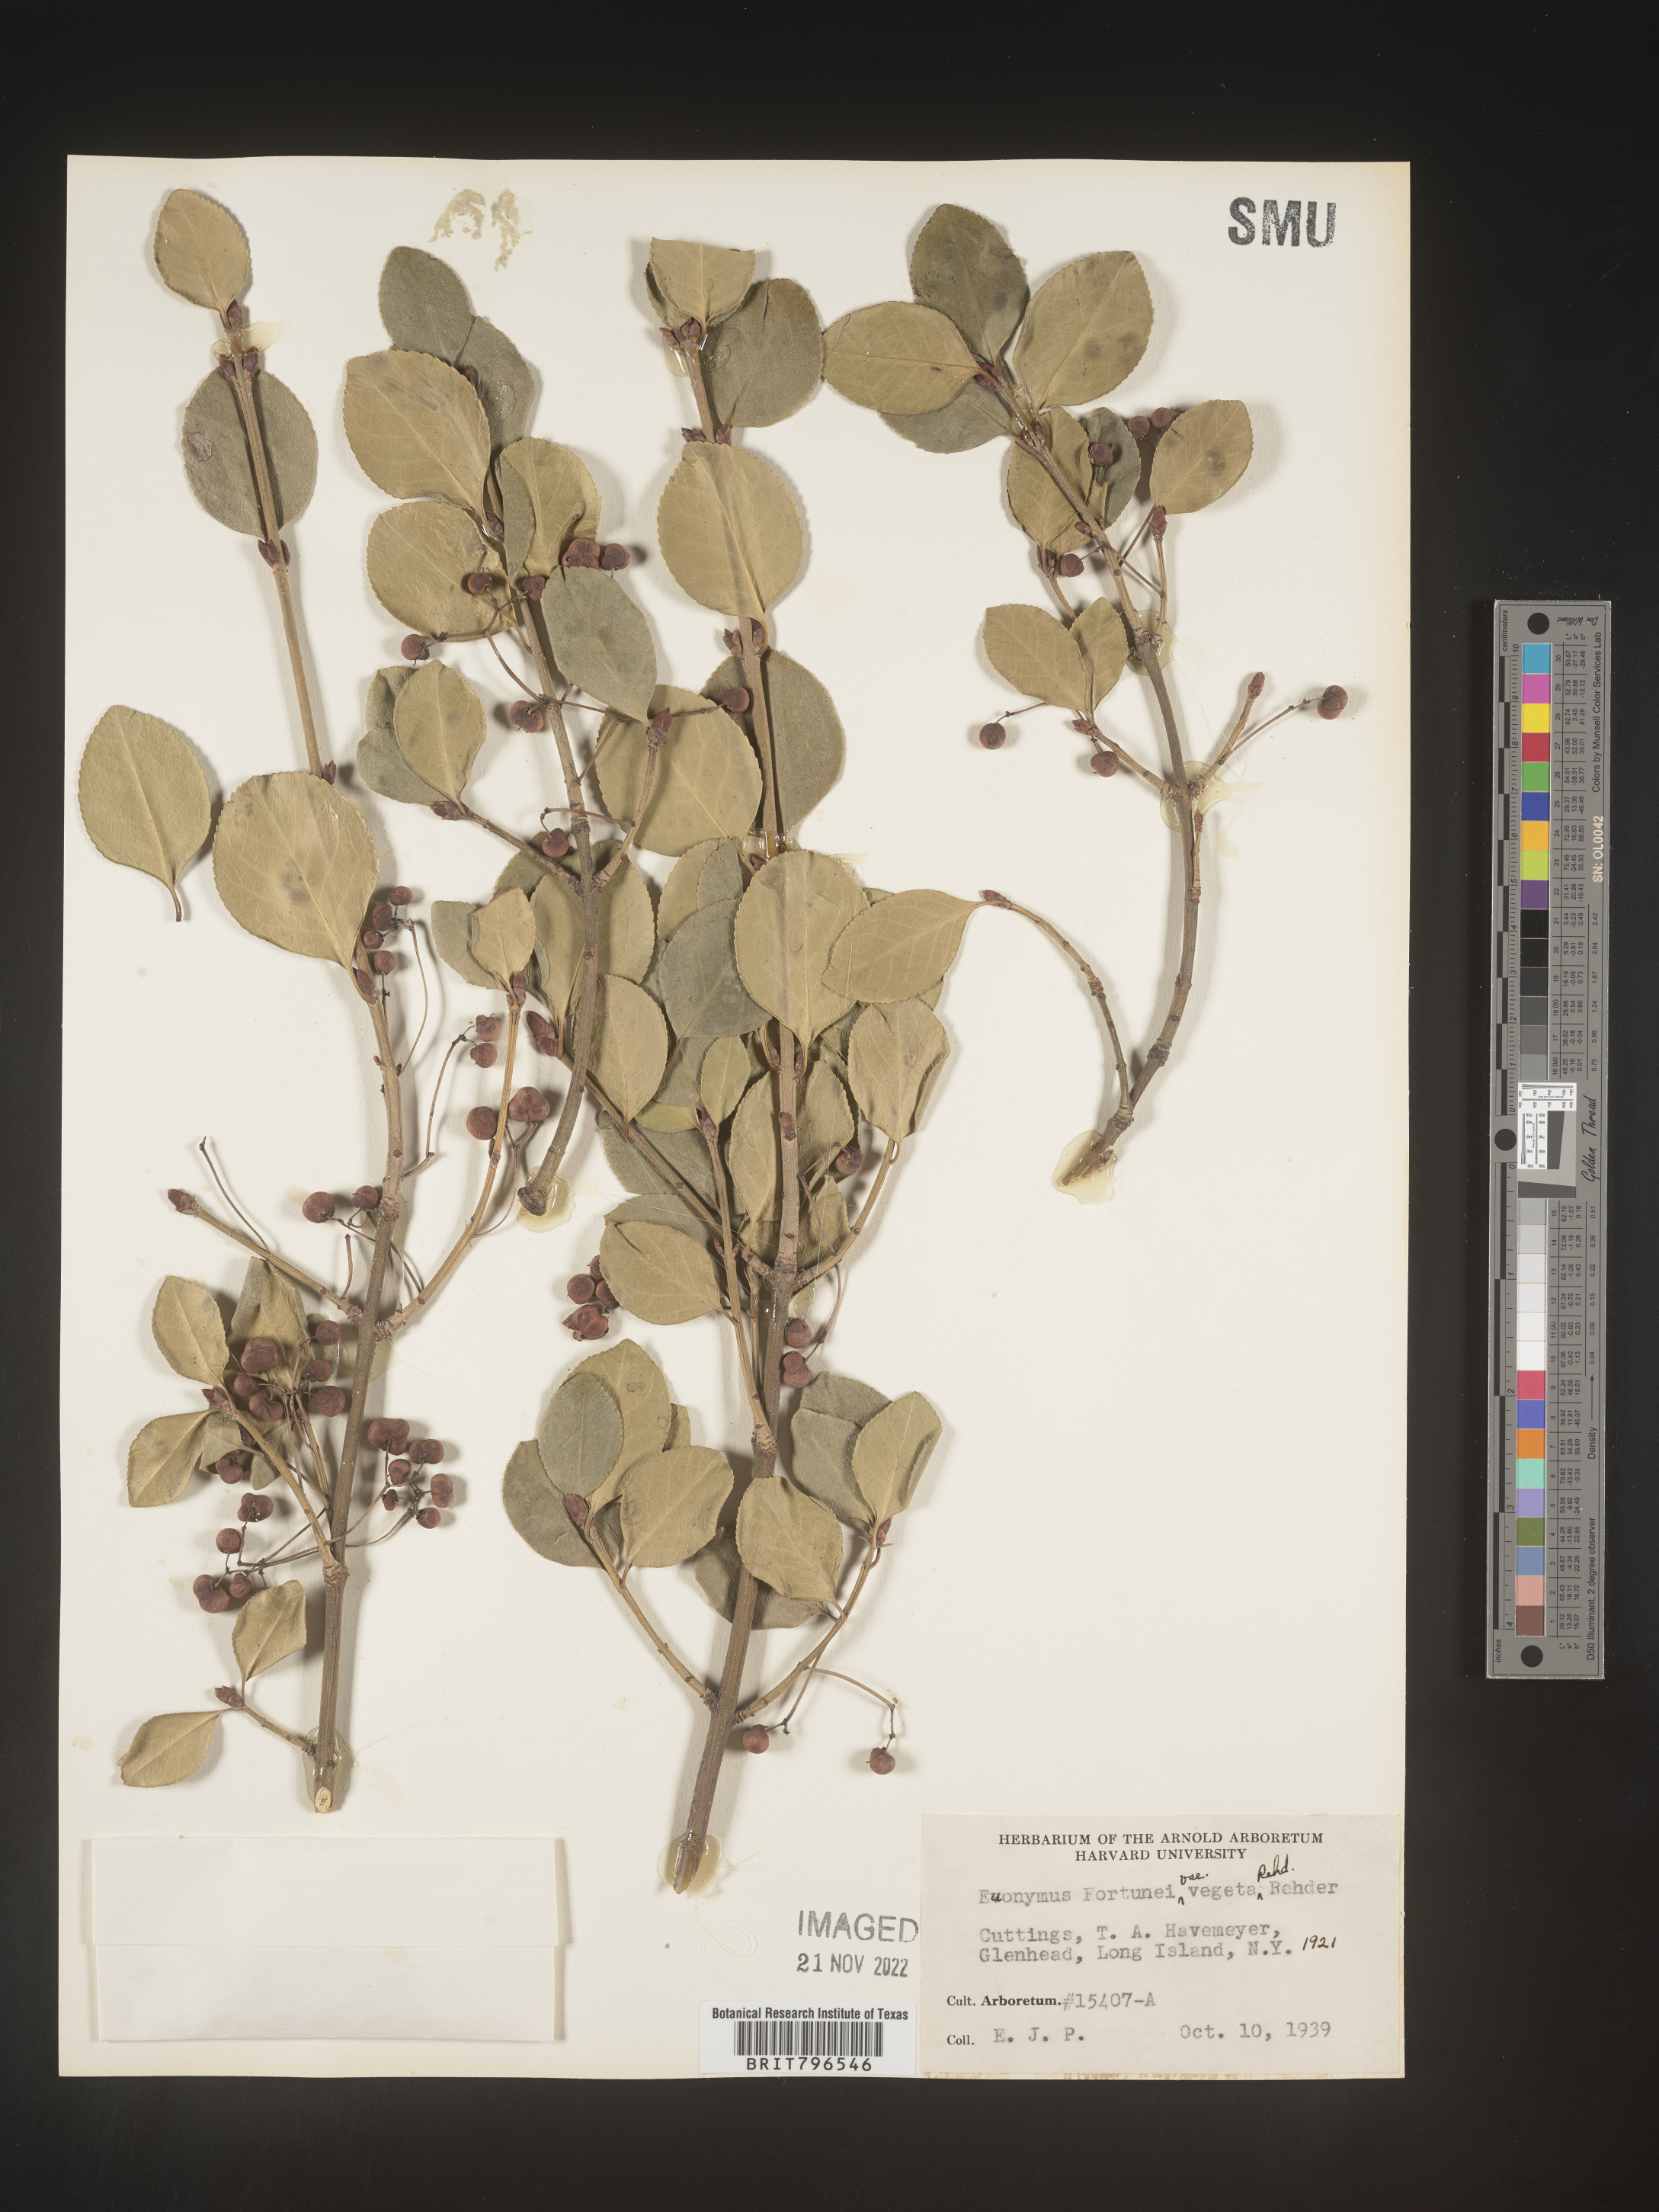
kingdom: Plantae
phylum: Tracheophyta
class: Magnoliopsida
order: Celastrales
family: Celastraceae
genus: Euonymus
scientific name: Euonymus
